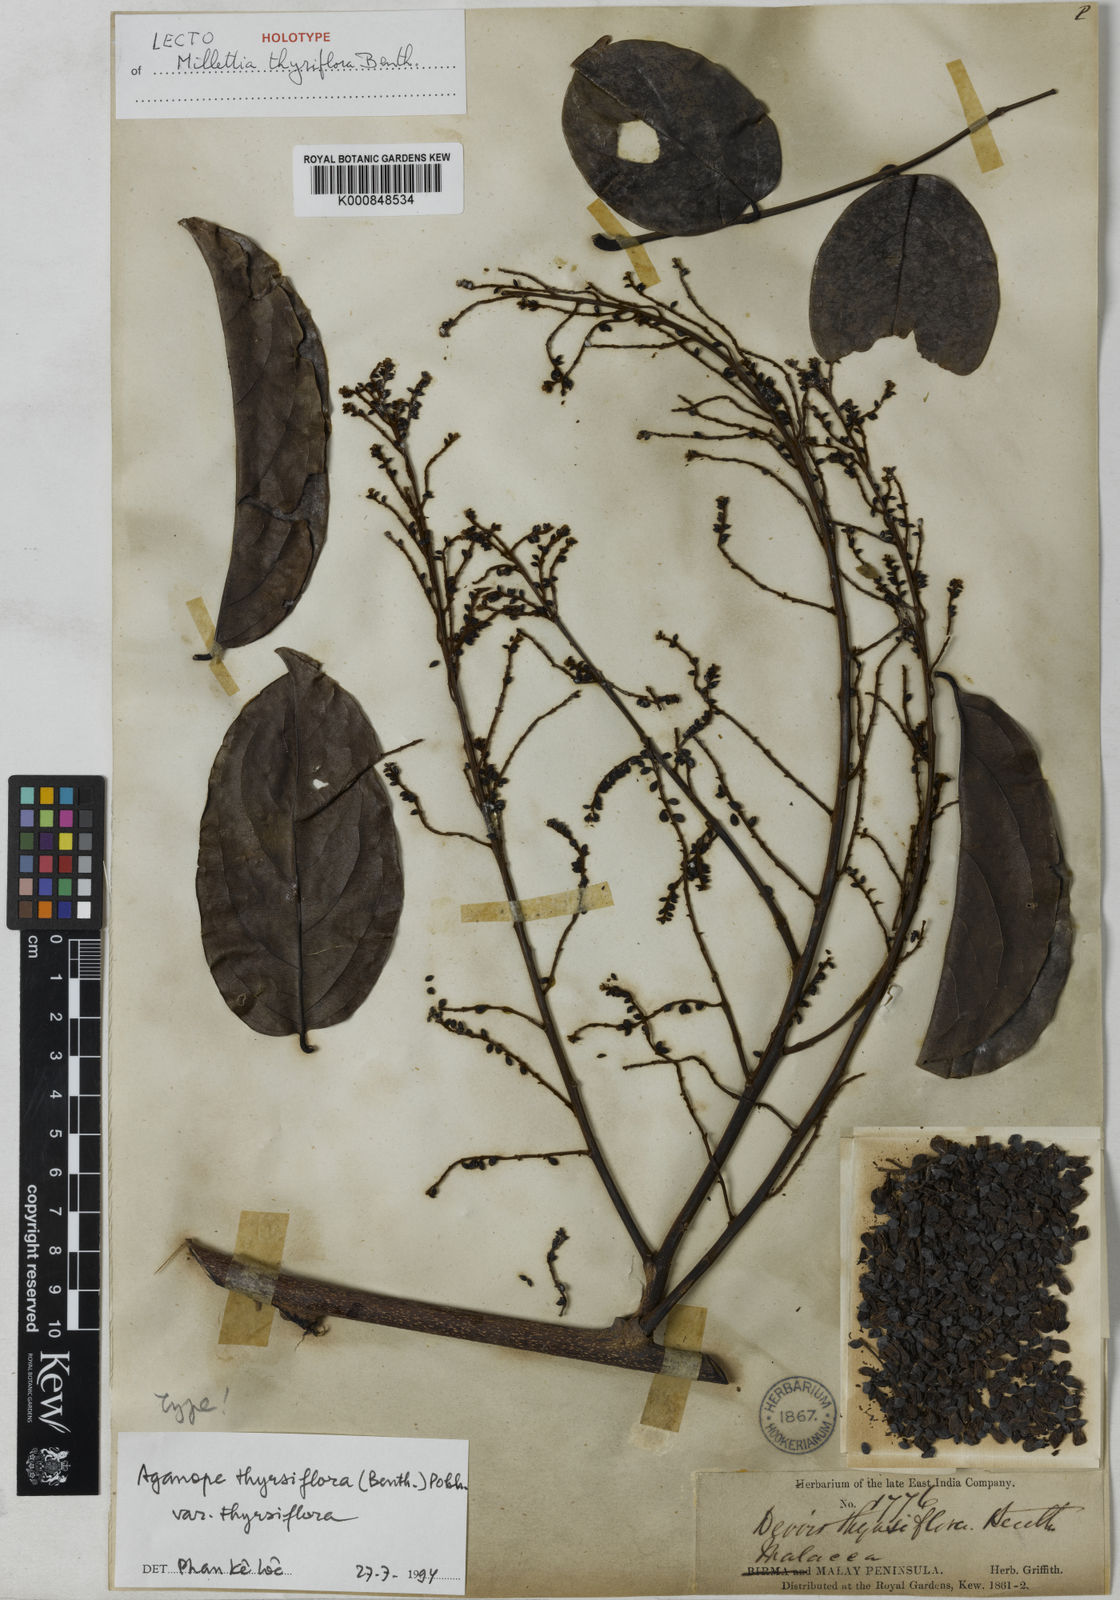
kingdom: Plantae
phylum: Tracheophyta
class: Magnoliopsida
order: Fabales
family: Fabaceae
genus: Aganope
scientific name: Aganope thyrsiflora
